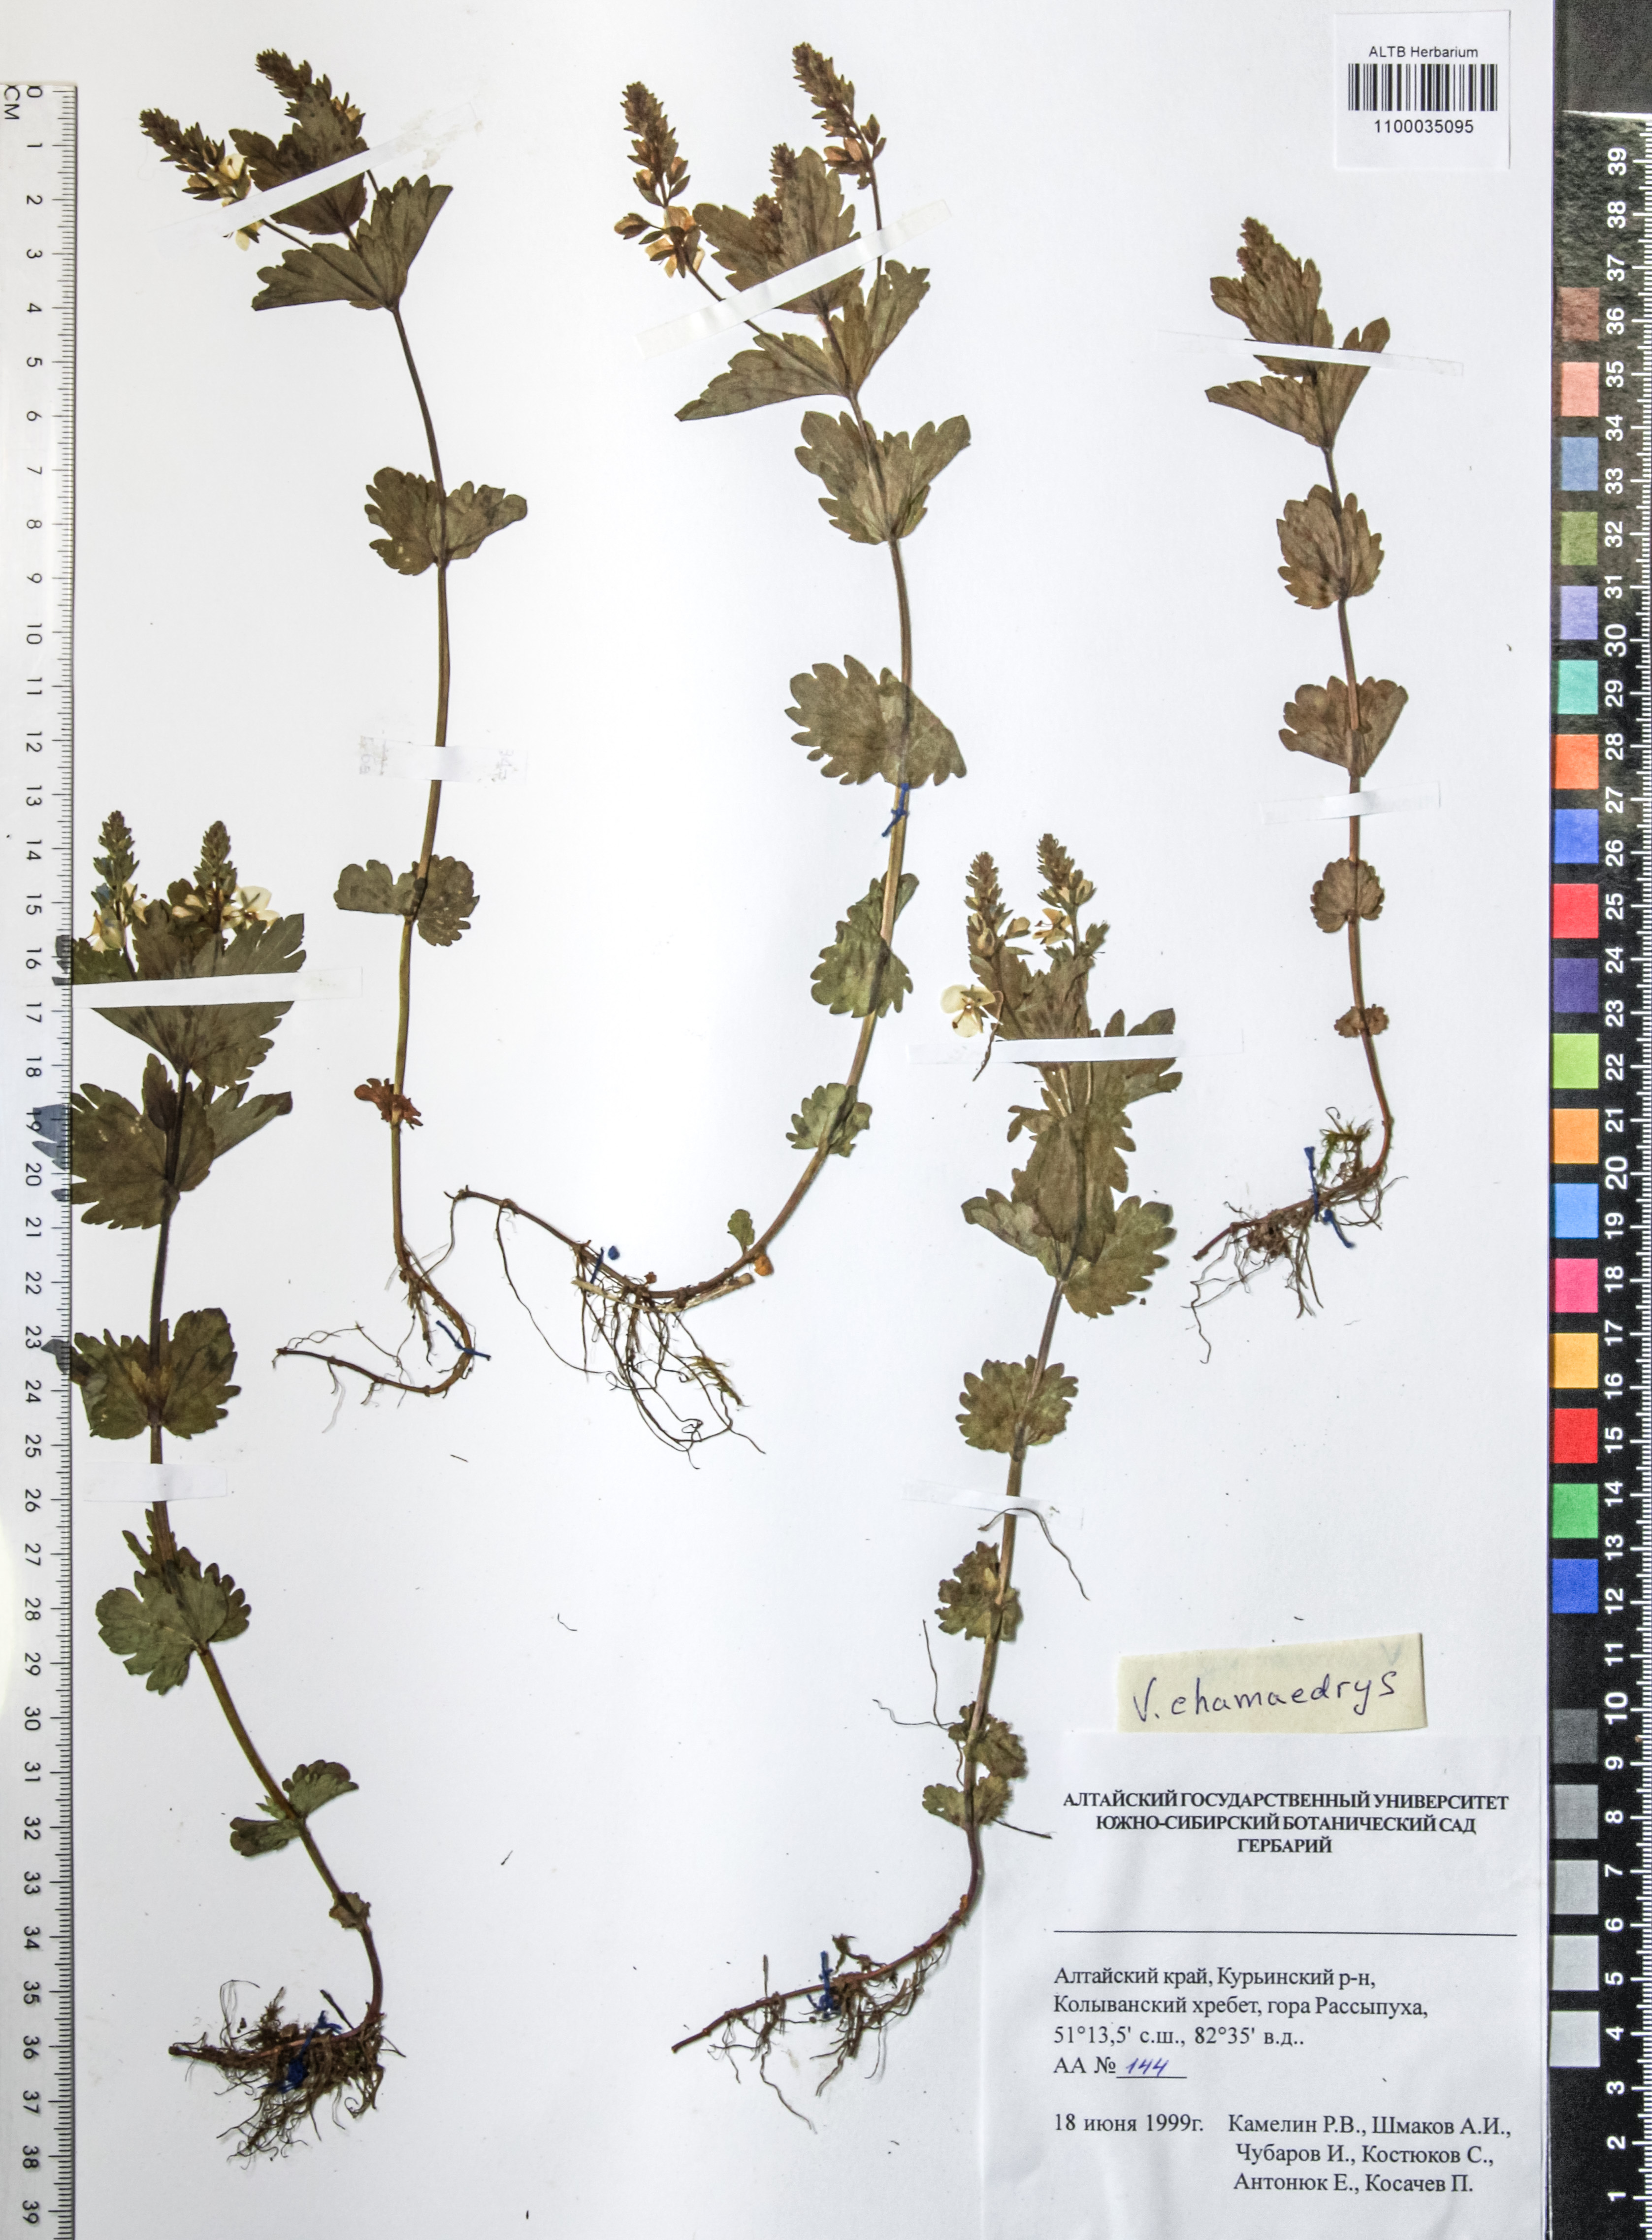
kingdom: Plantae
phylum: Tracheophyta
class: Magnoliopsida
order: Lamiales
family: Plantaginaceae
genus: Veronica
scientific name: Veronica chamaedrys
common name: Germander speedwell
